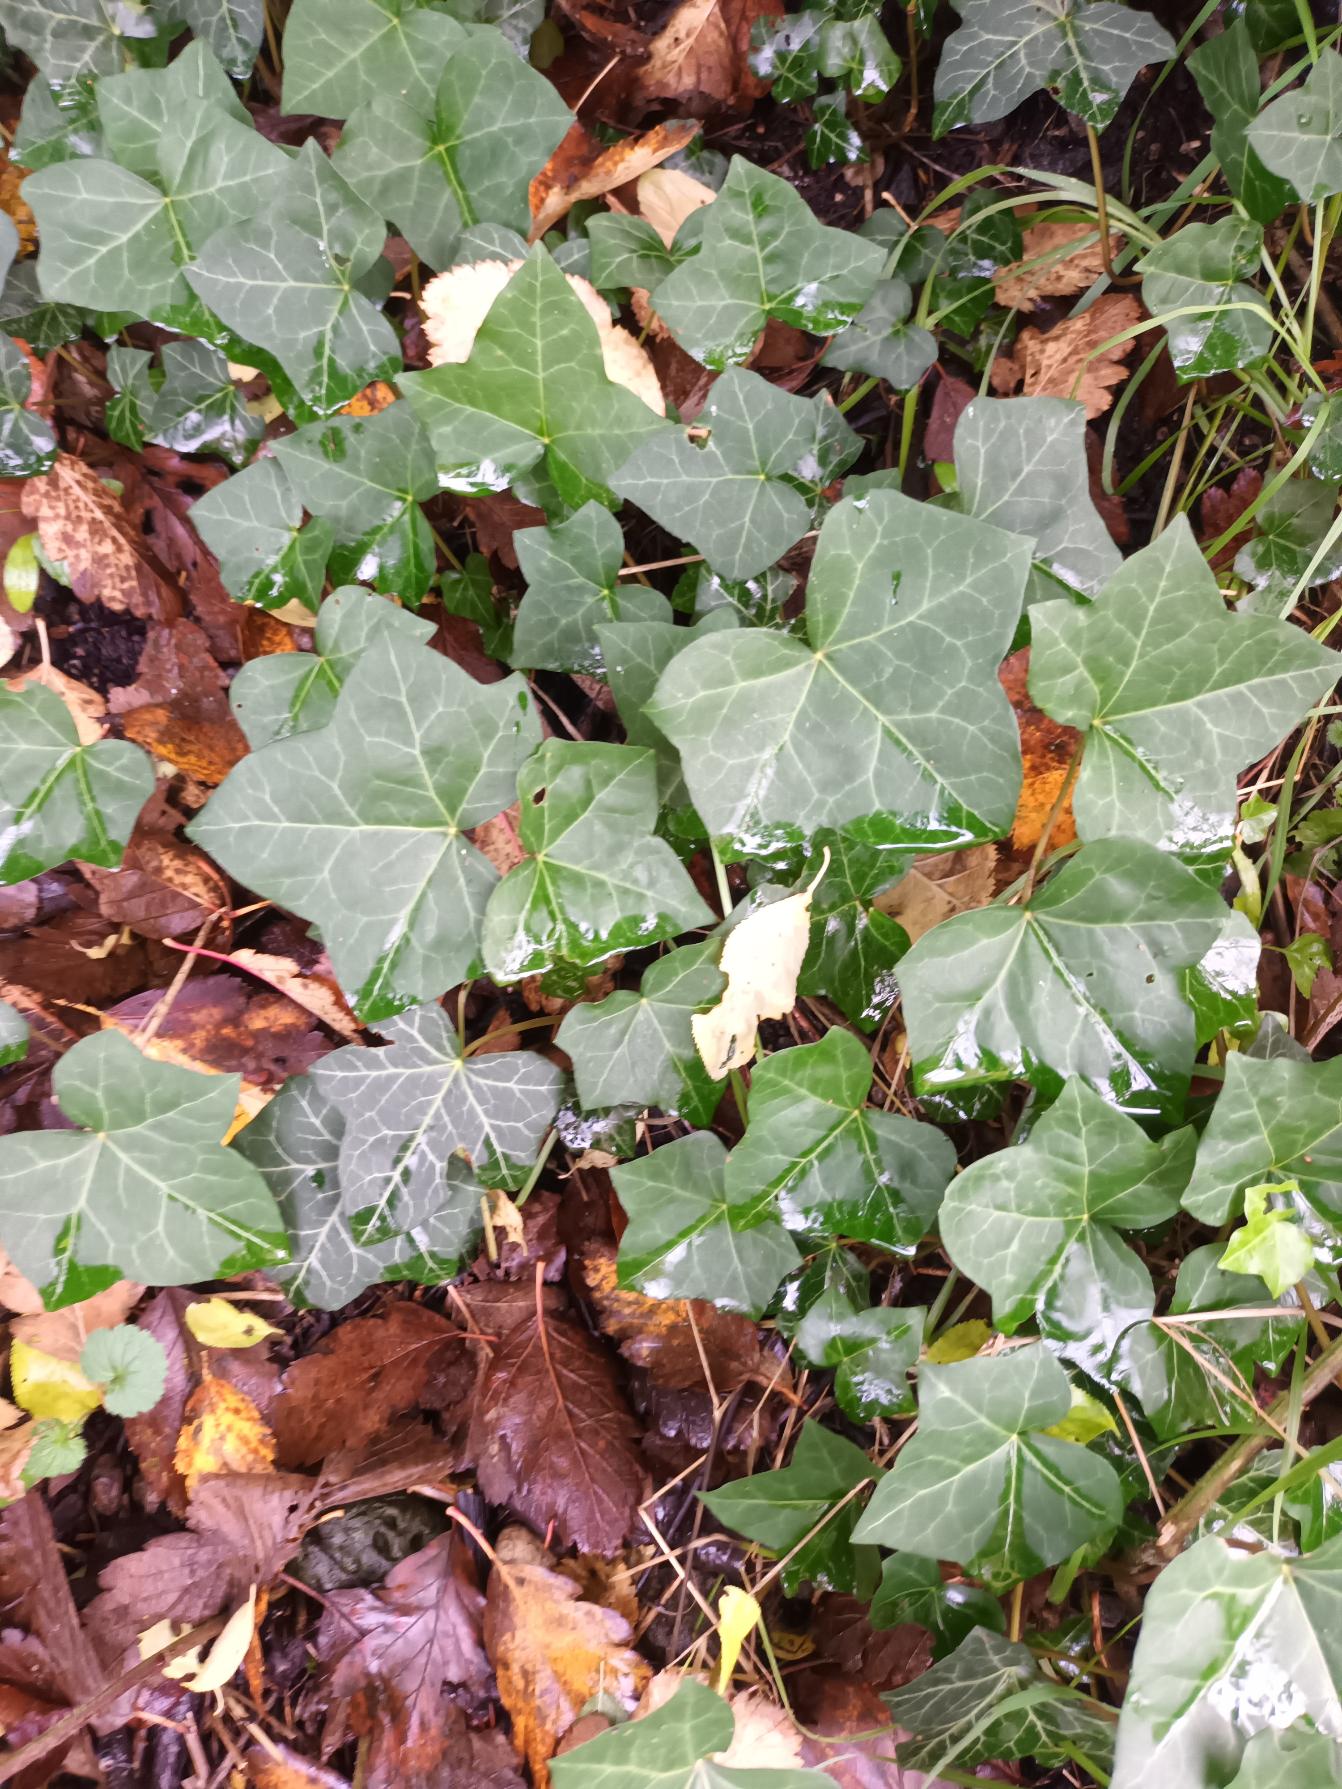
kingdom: Plantae
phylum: Tracheophyta
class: Magnoliopsida
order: Apiales
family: Araliaceae
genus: Hedera
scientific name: Hedera hibernica
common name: Irsk vedbend
